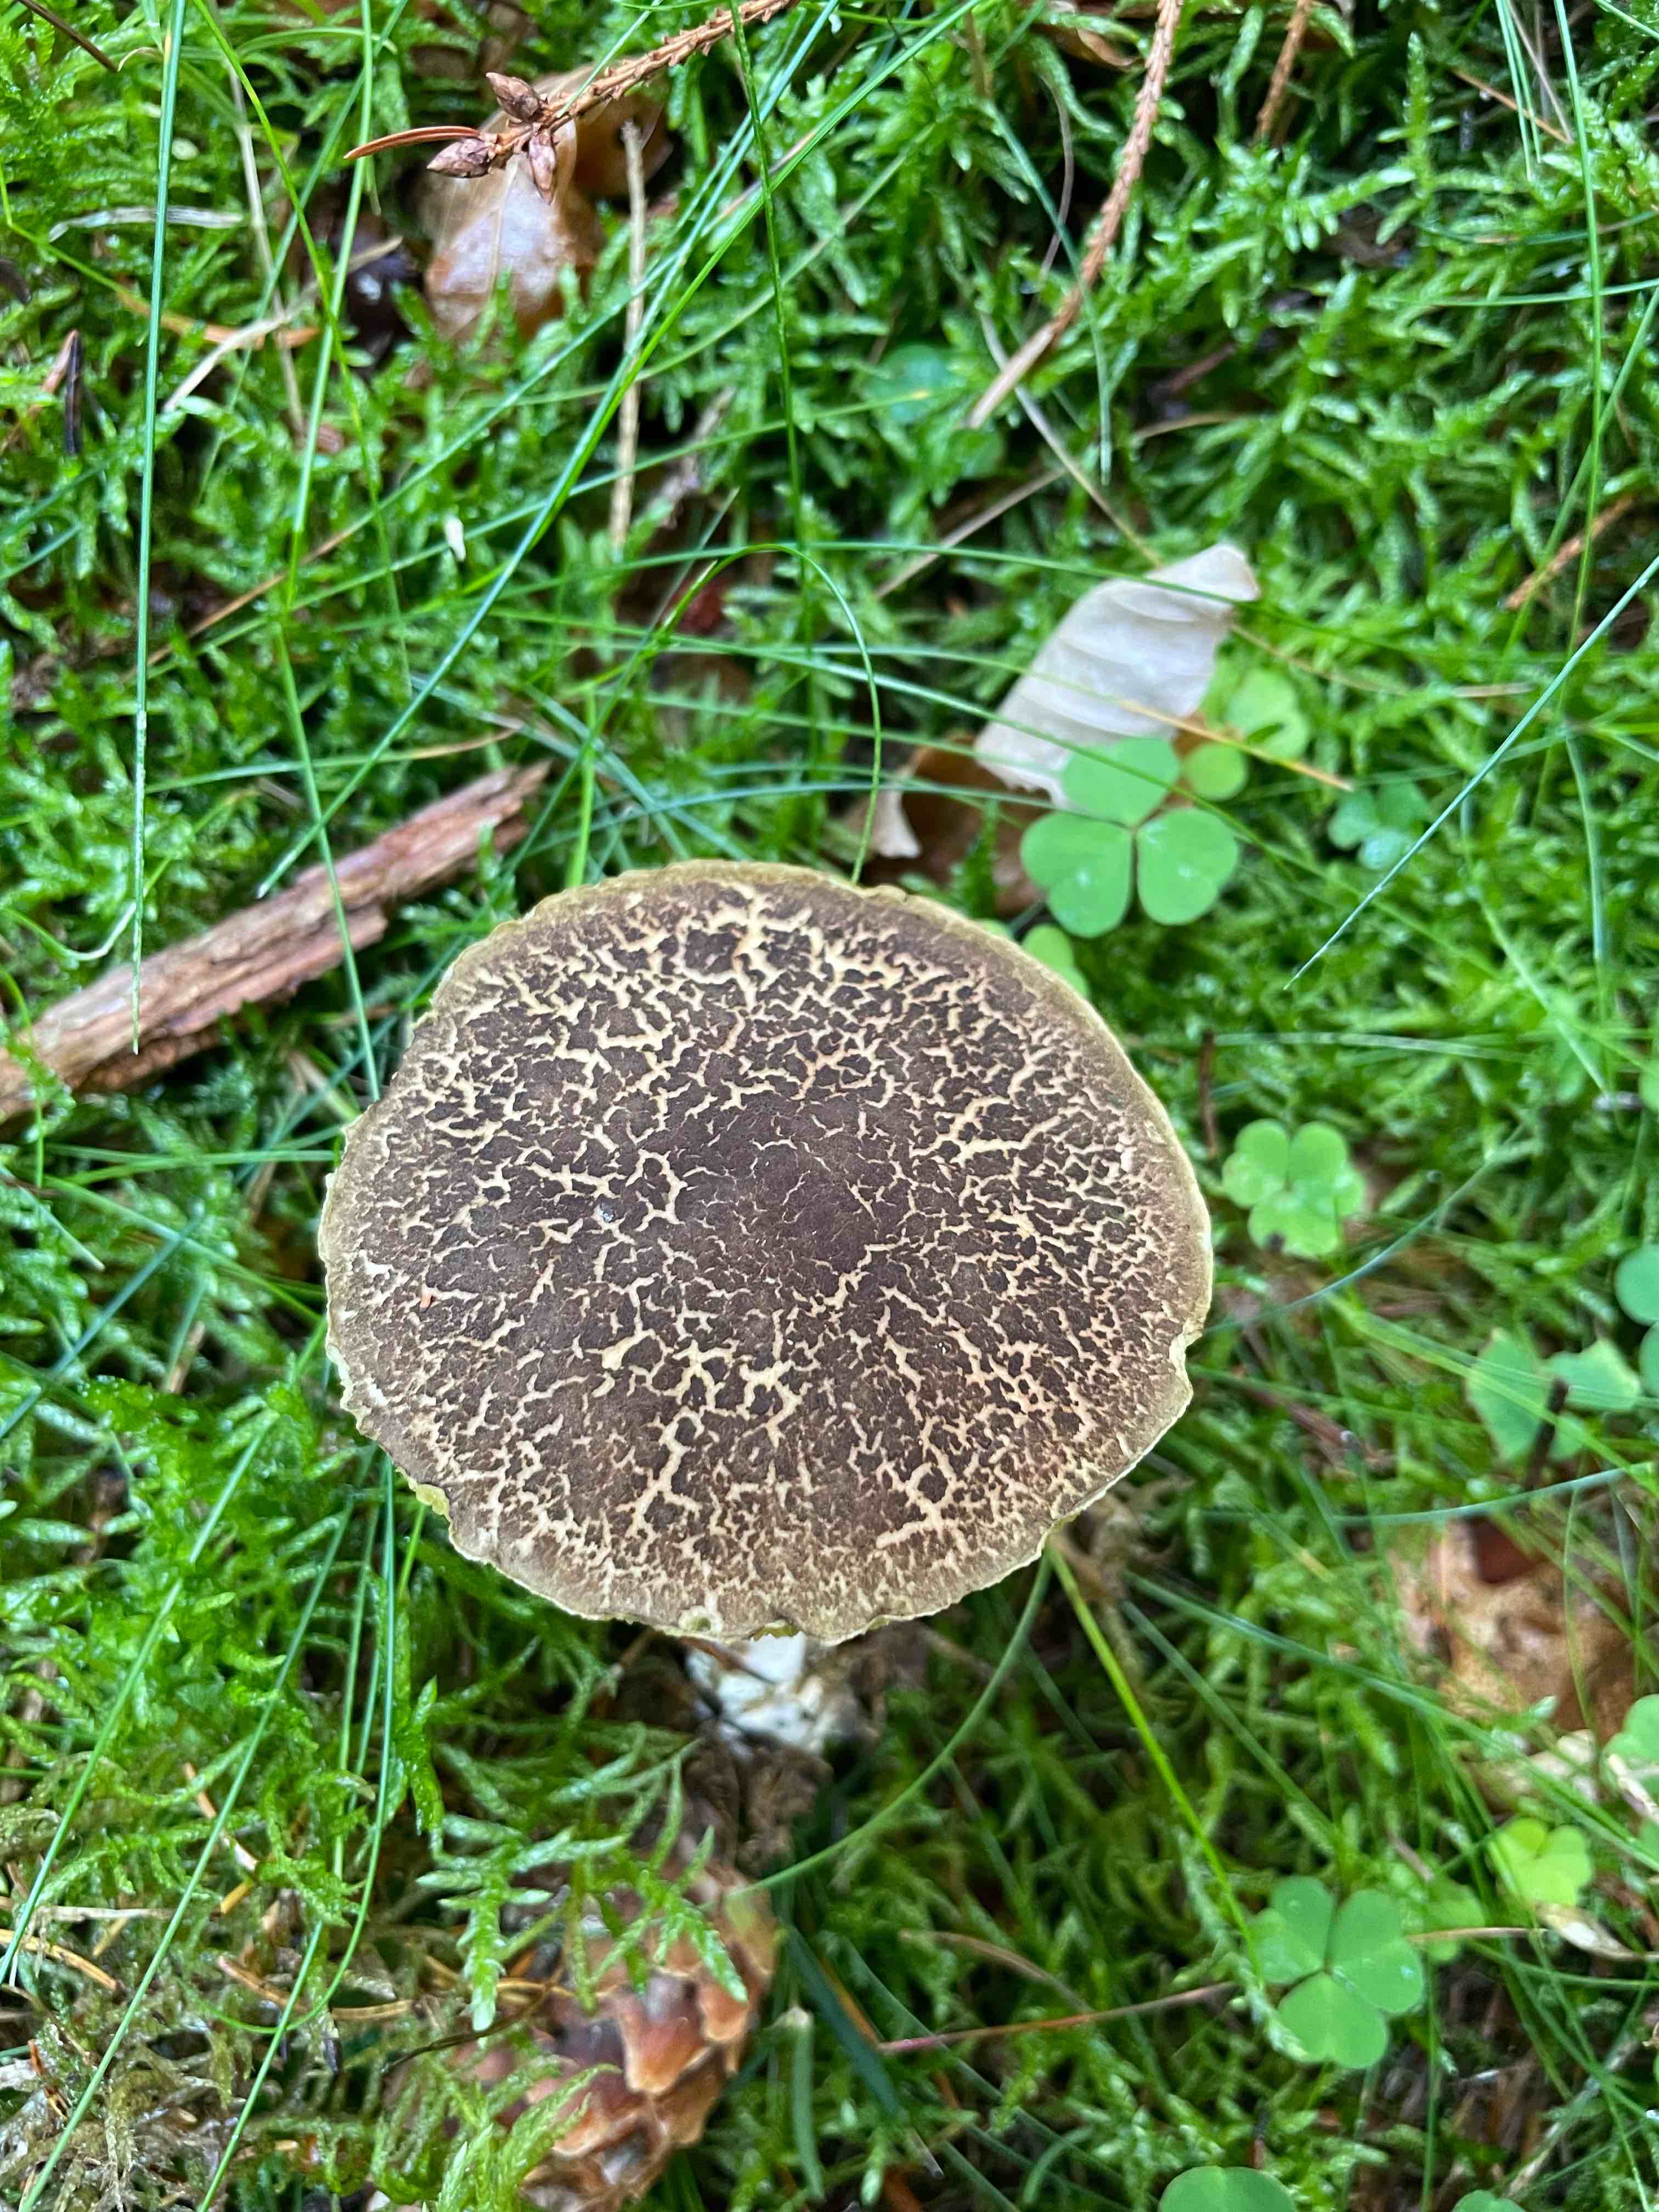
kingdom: Fungi
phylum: Basidiomycota
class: Agaricomycetes
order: Boletales
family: Boletaceae
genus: Xerocomellus
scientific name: Xerocomellus chrysenteron
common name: rødsprukken rørhat
